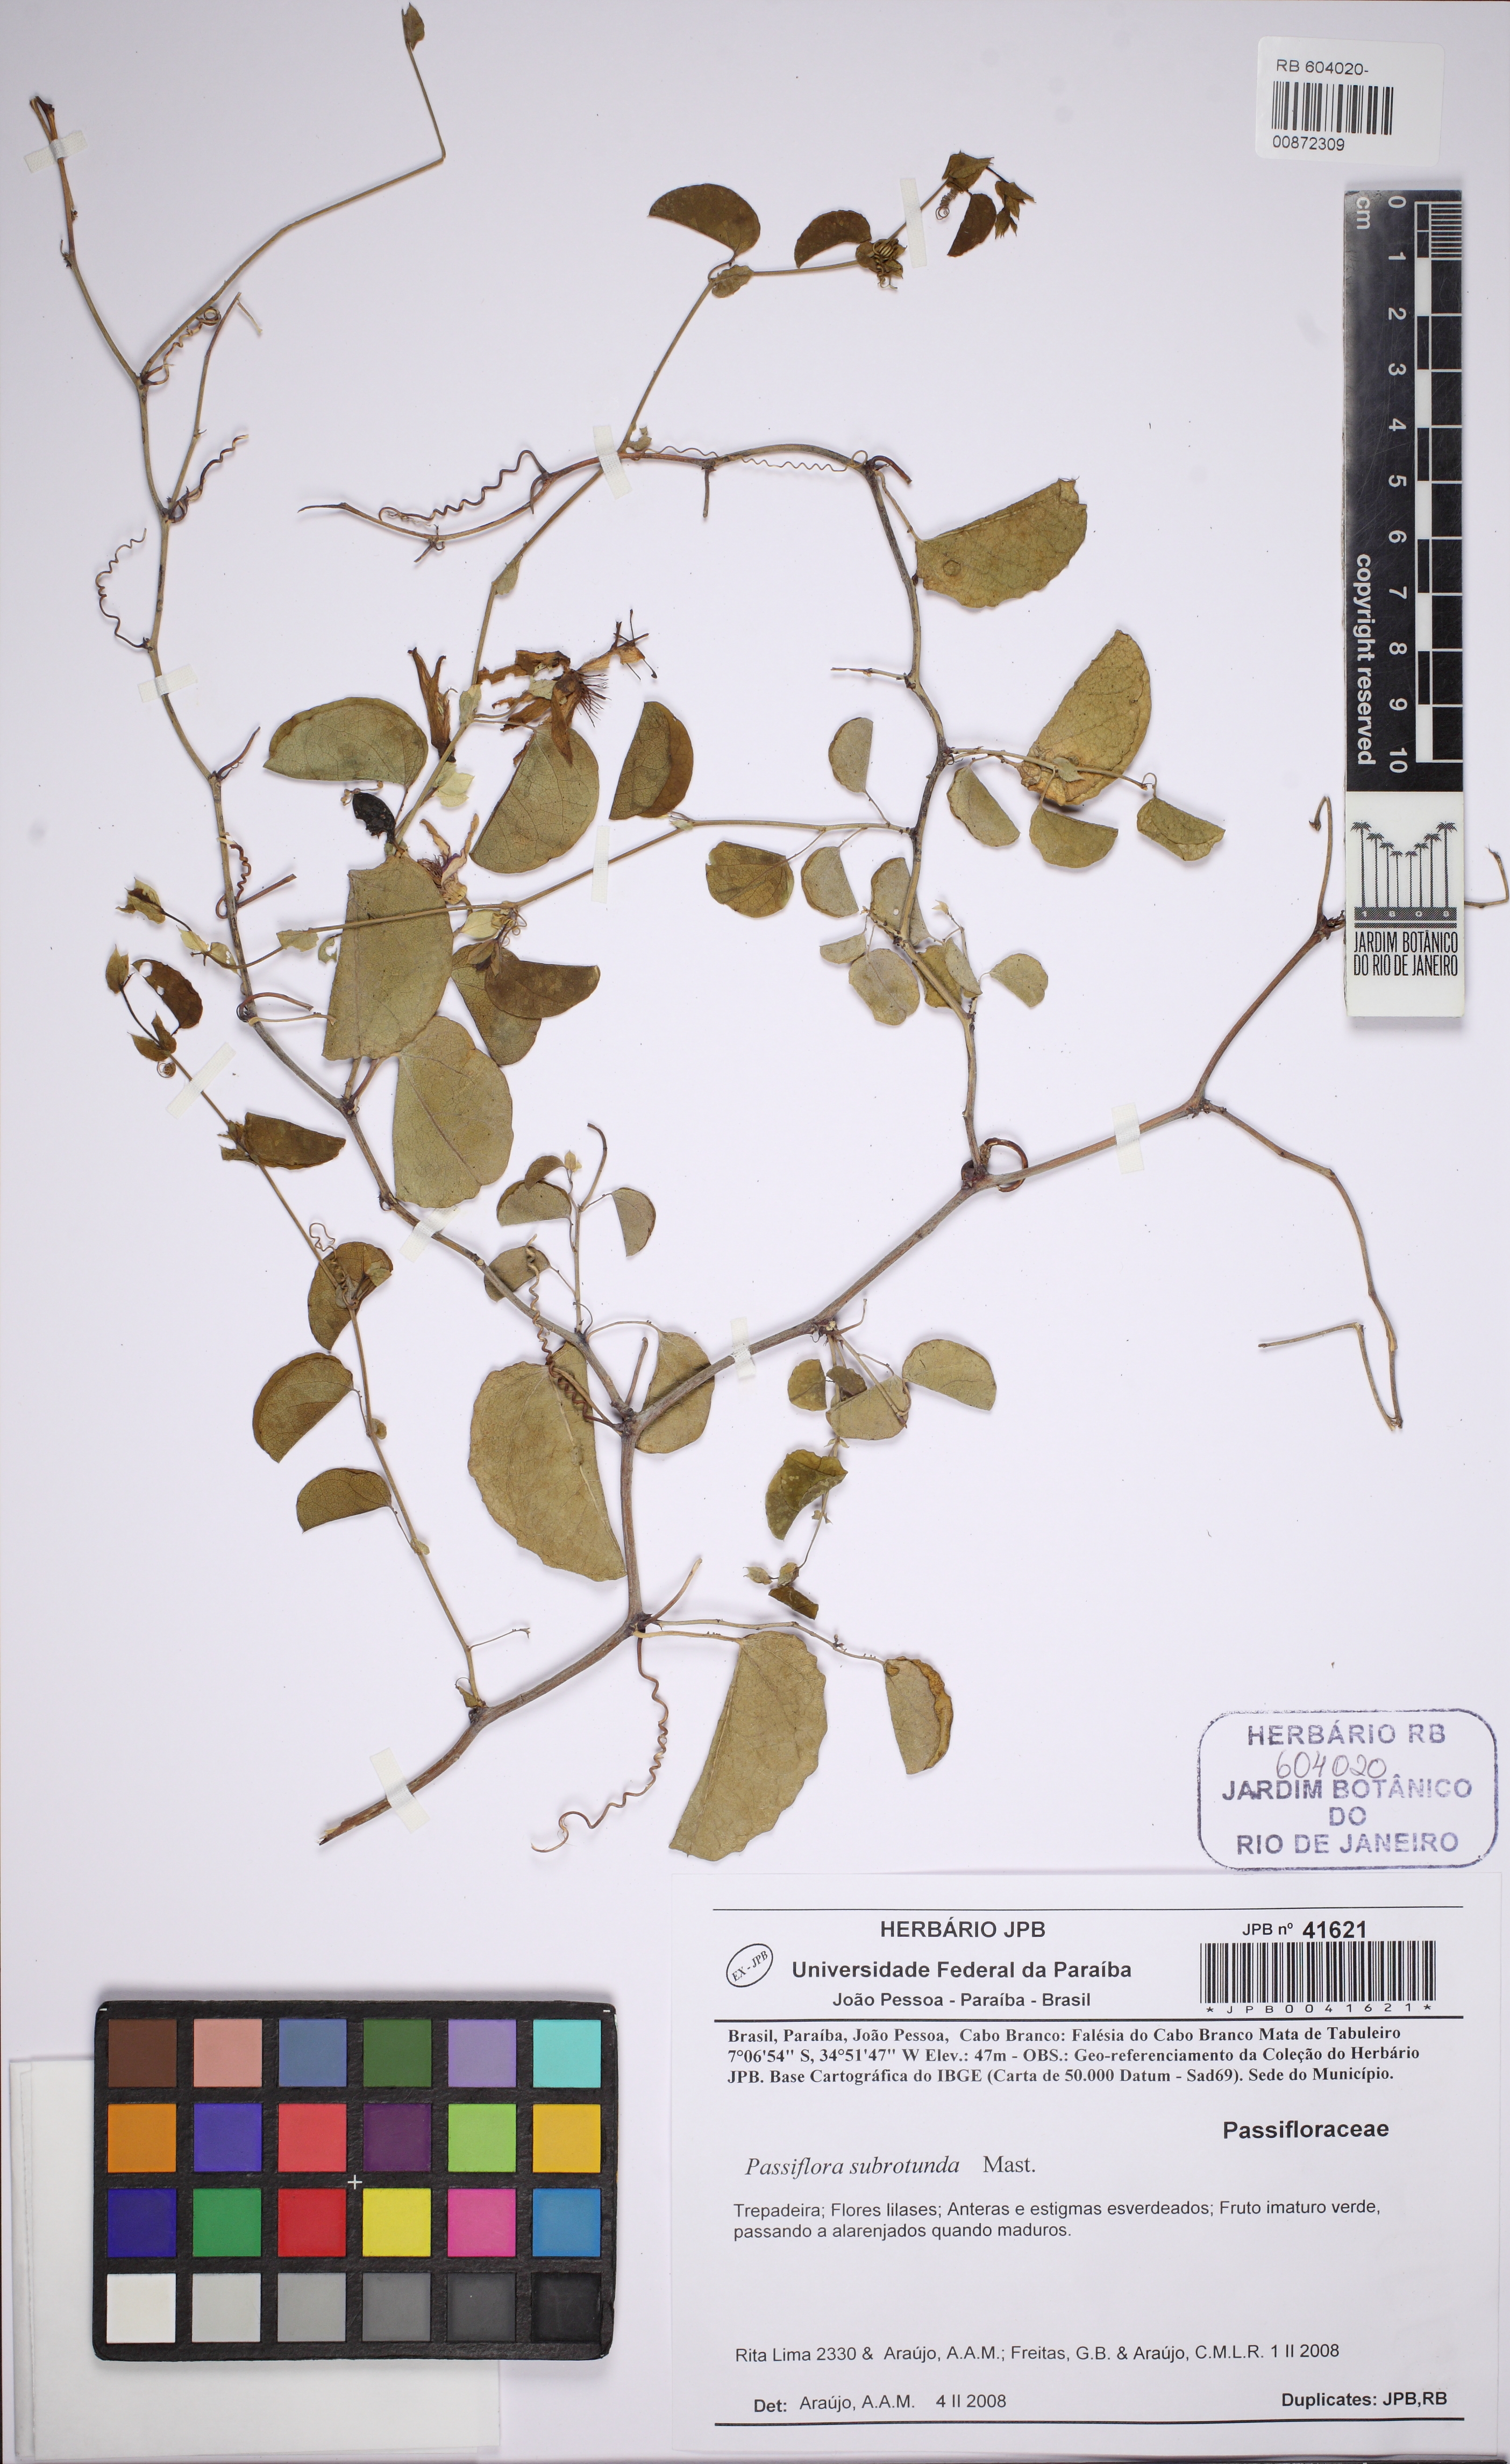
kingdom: Plantae
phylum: Tracheophyta
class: Magnoliopsida
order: Malpighiales
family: Passifloraceae
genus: Passiflora
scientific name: Passiflora subrotunda
